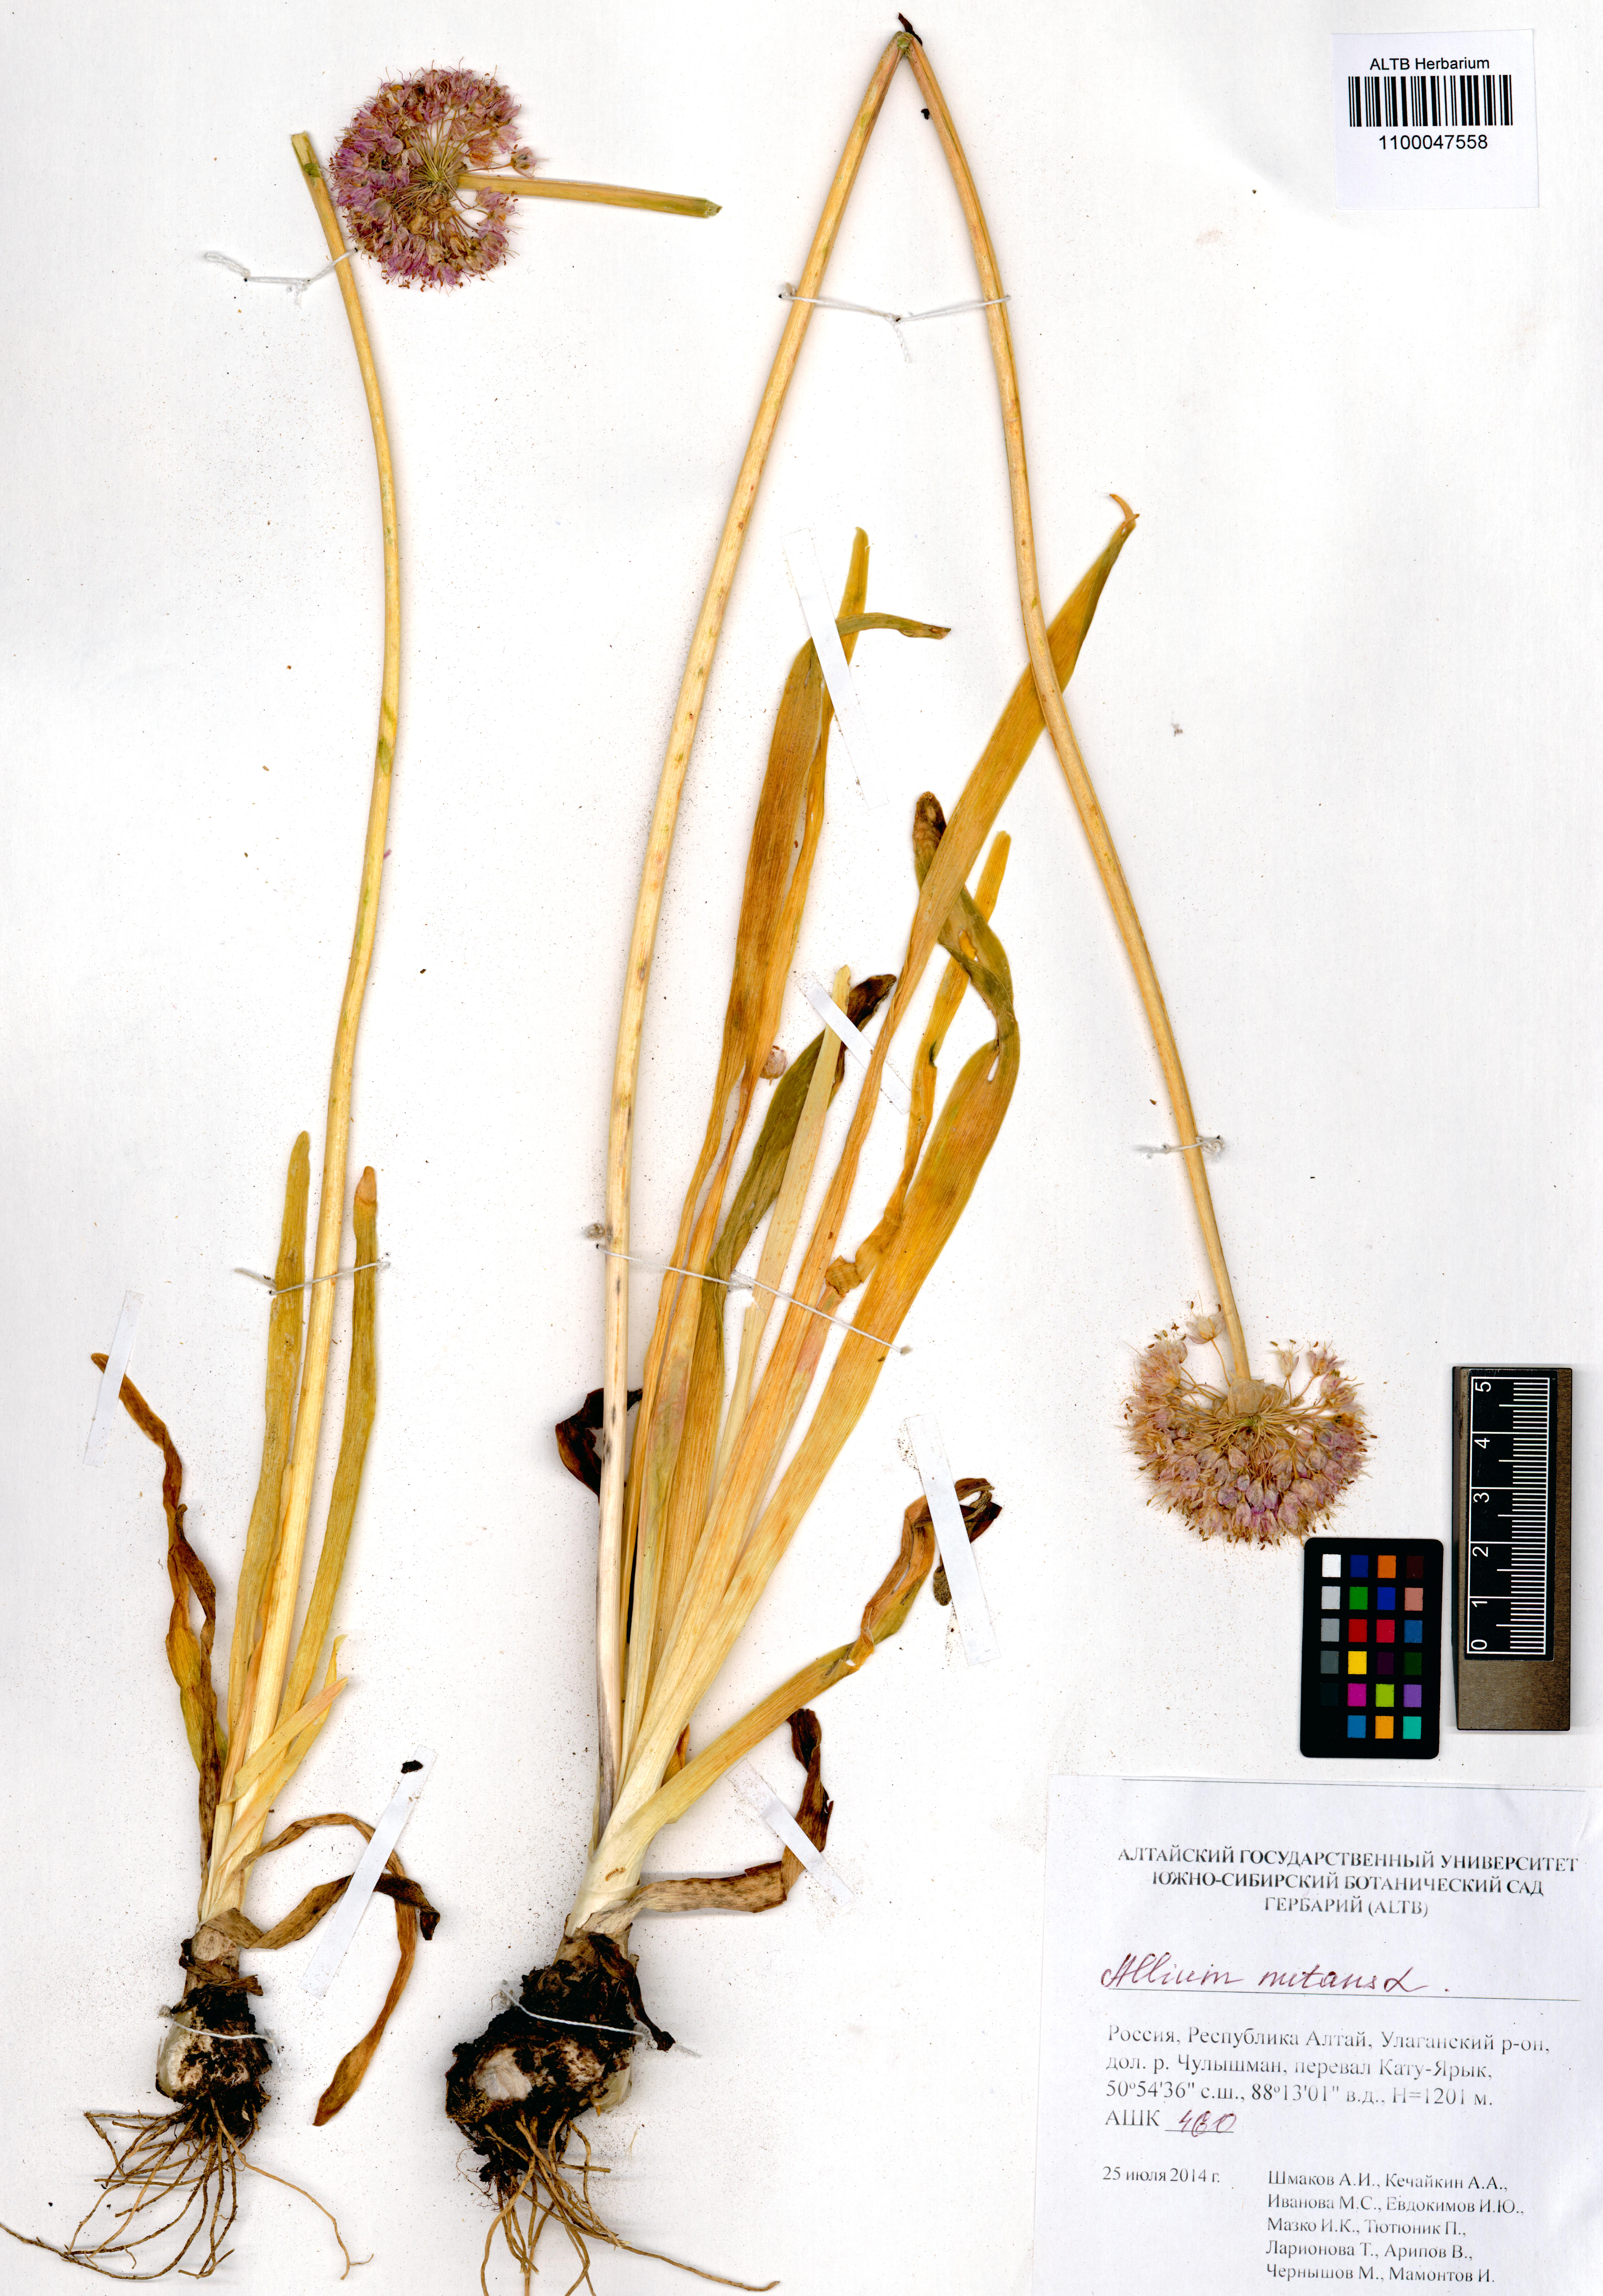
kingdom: Plantae
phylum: Tracheophyta
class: Liliopsida
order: Asparagales
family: Amaryllidaceae
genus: Allium
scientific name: Allium nutans
